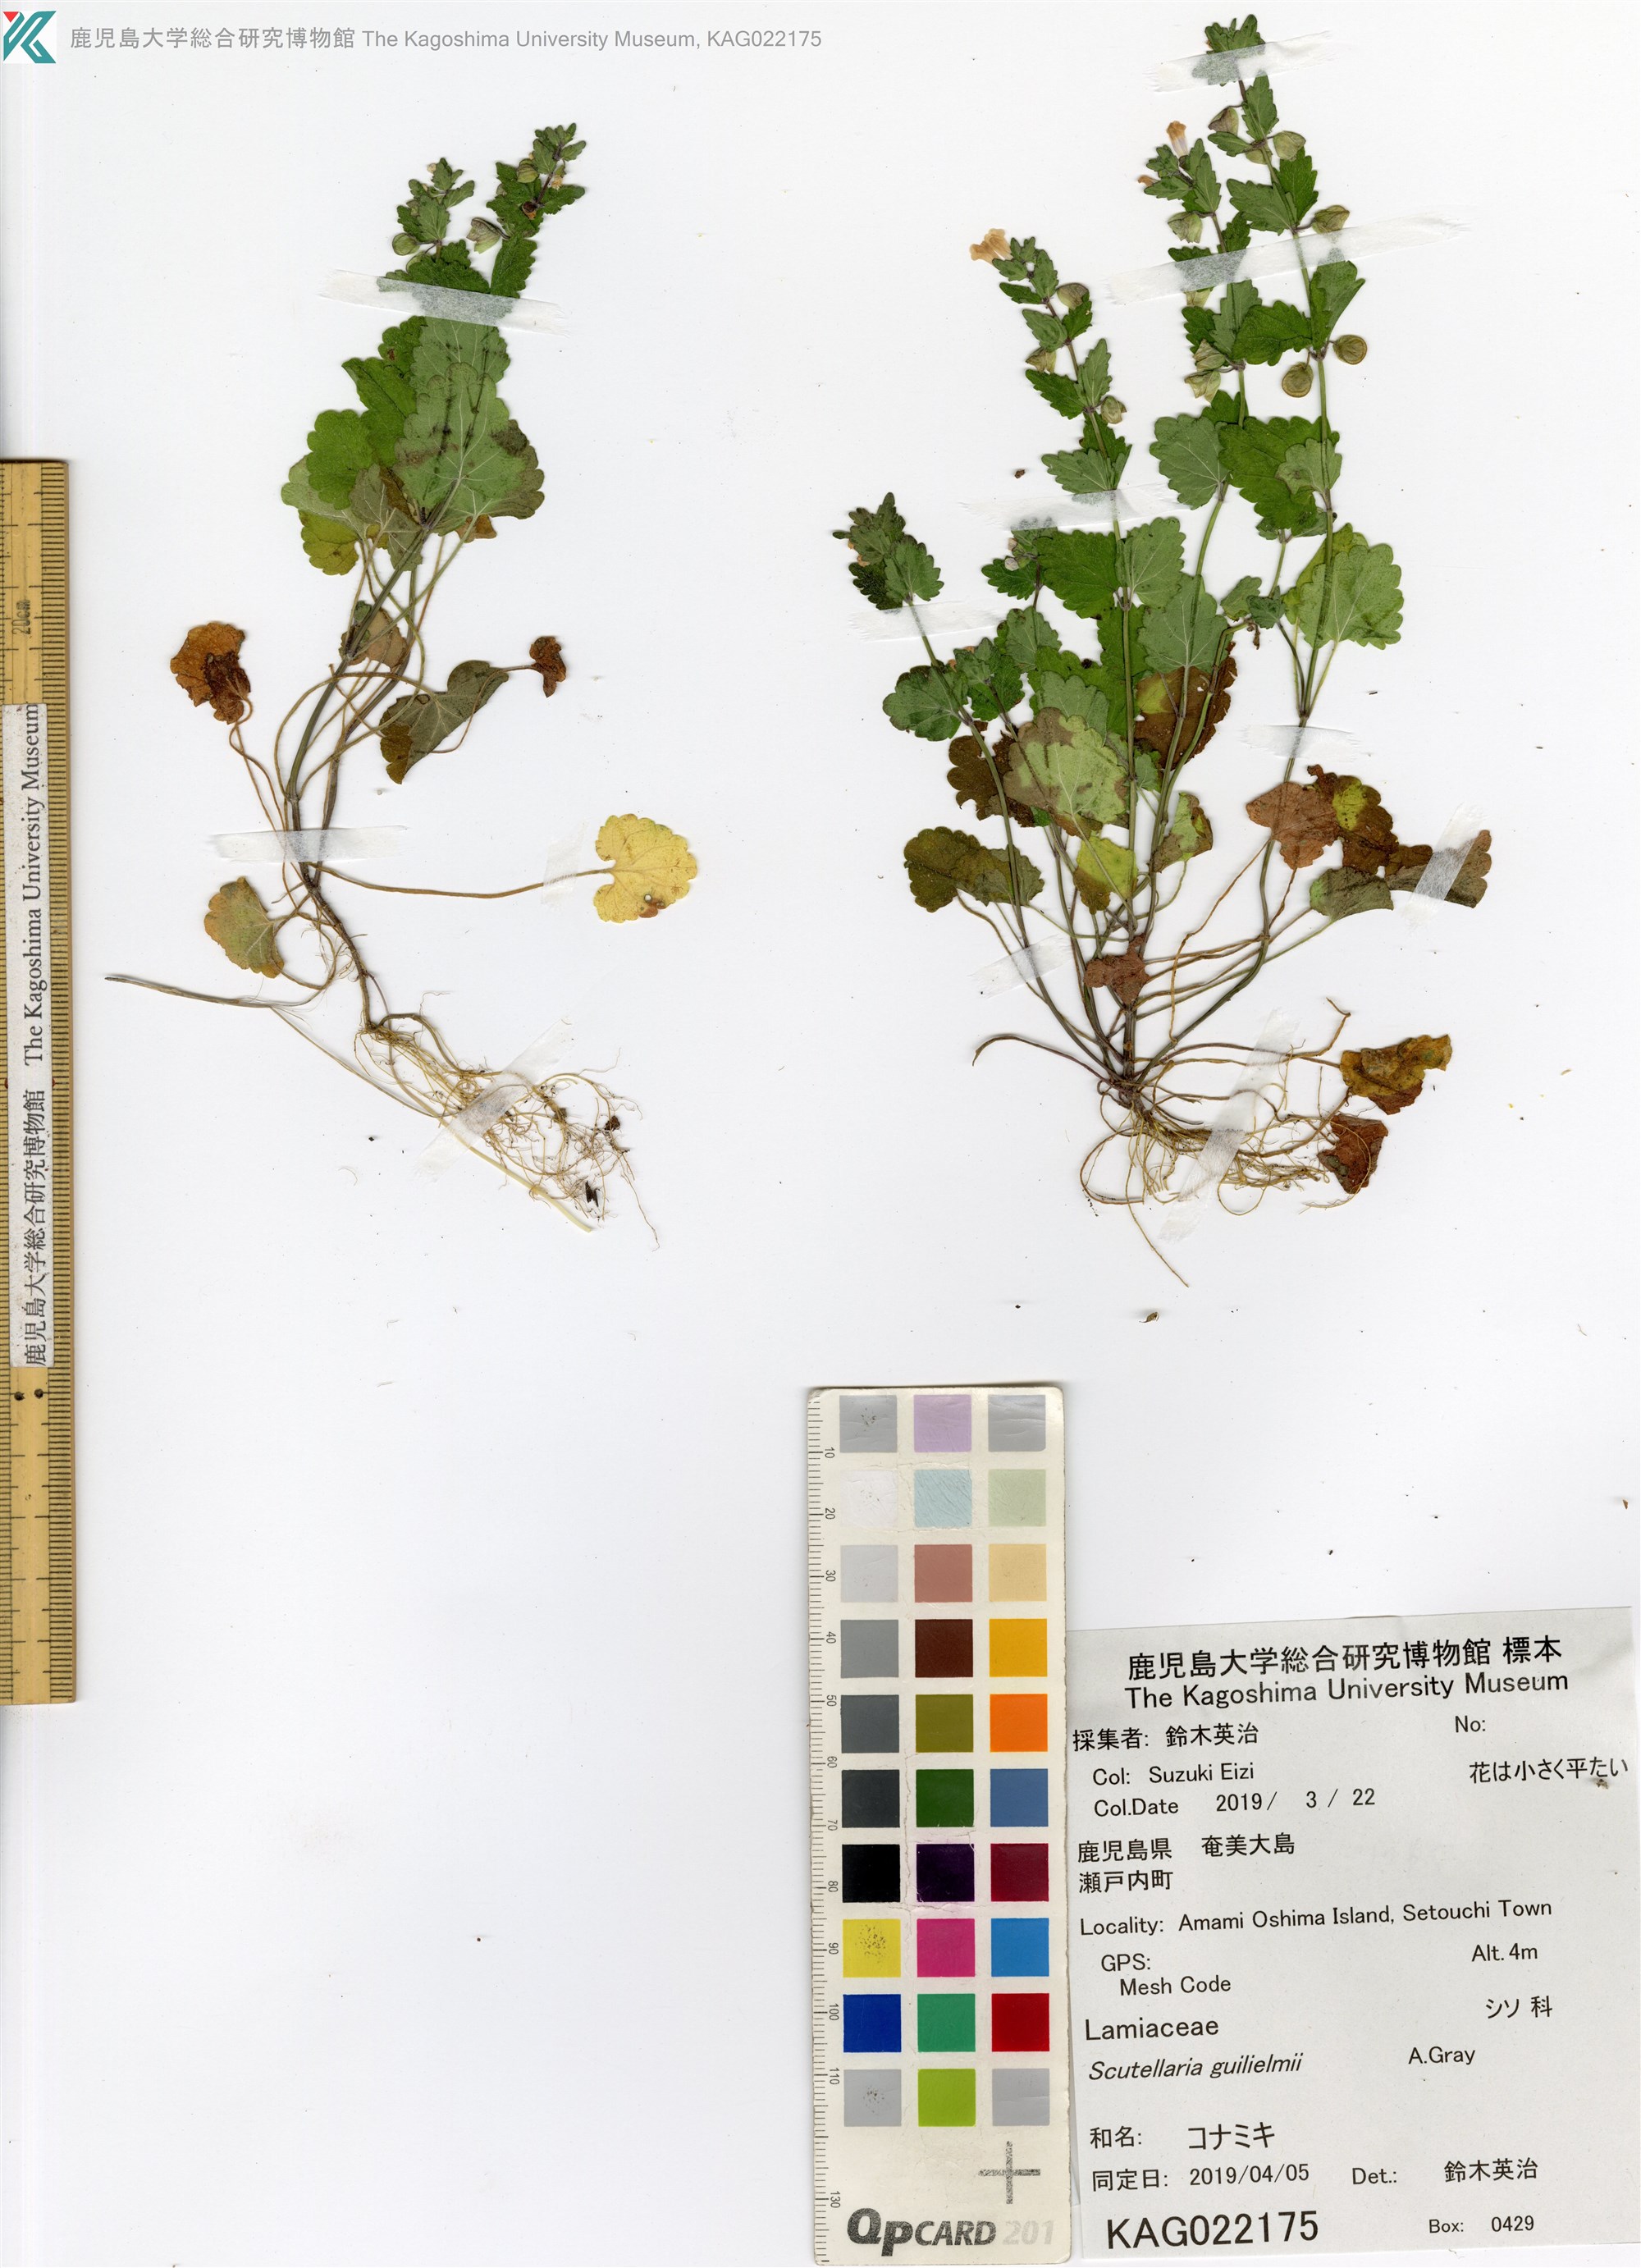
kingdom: Plantae
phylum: Tracheophyta
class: Magnoliopsida
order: Lamiales
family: Lamiaceae
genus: Scutellaria
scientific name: Scutellaria guilielmi
